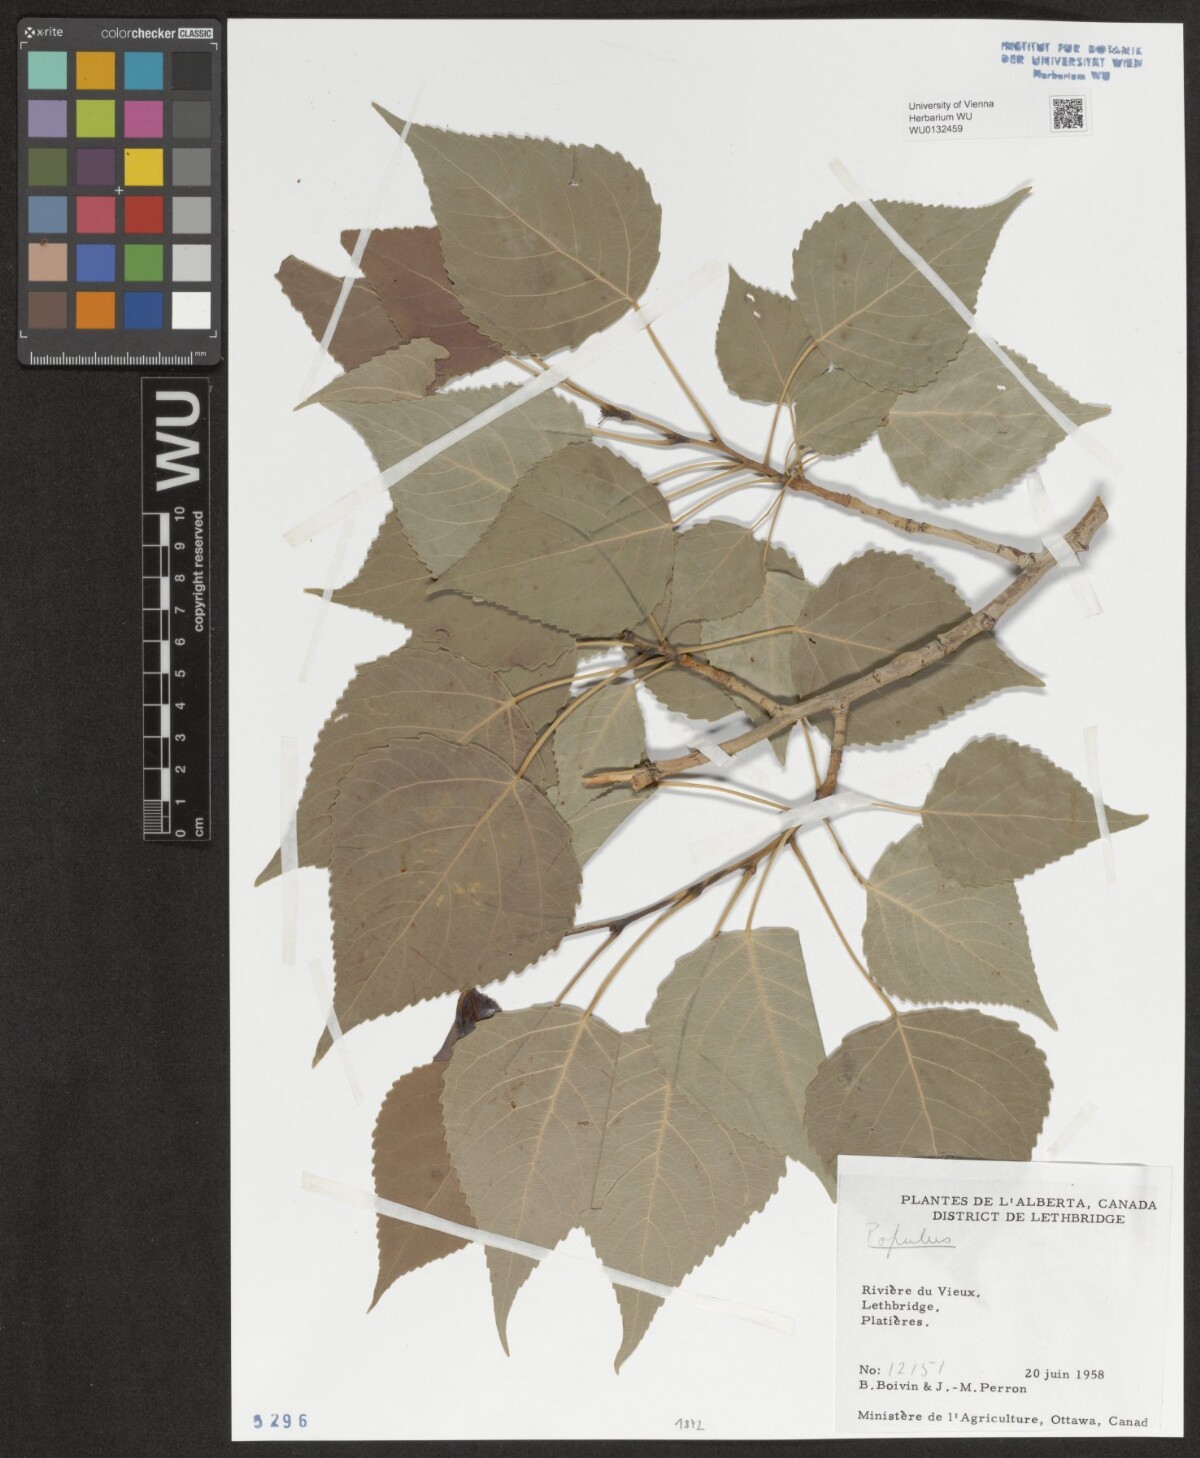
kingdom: Plantae
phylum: Tracheophyta
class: Magnoliopsida
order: Malpighiales
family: Salicaceae
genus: Populus
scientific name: Populus
